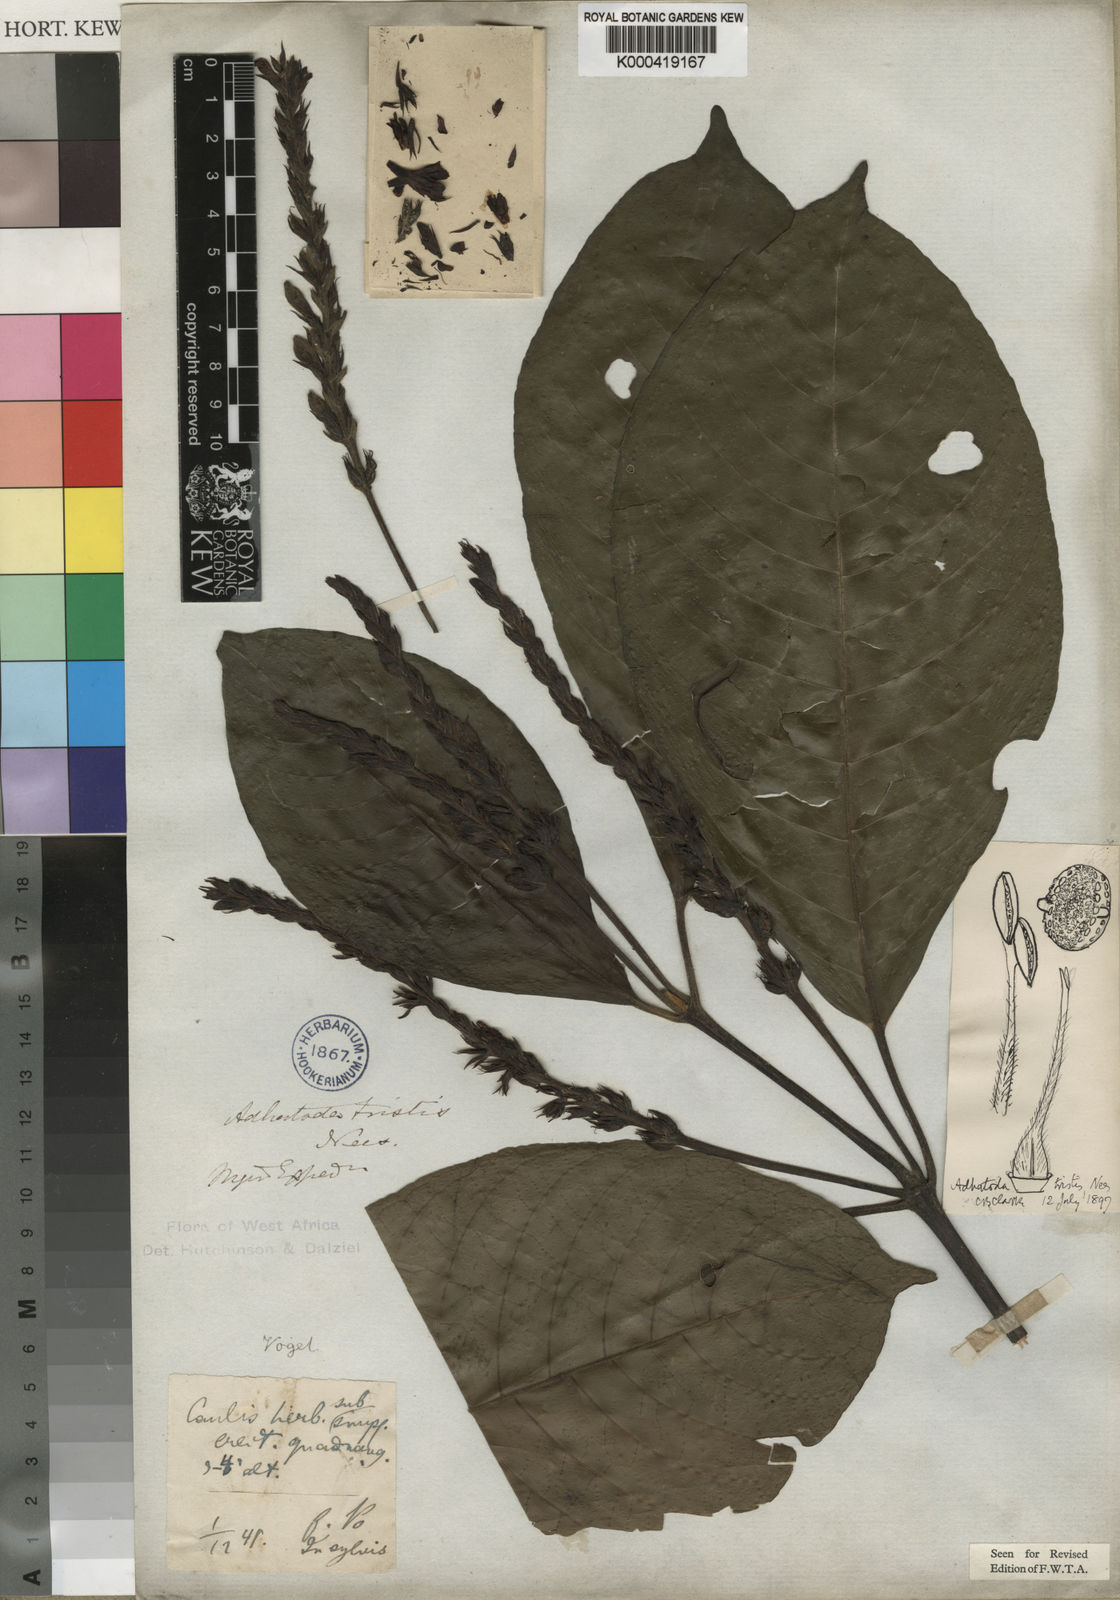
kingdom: Plantae
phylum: Tracheophyta
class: Magnoliopsida
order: Lamiales
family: Acanthaceae
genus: Justicia
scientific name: Justicia tristis
